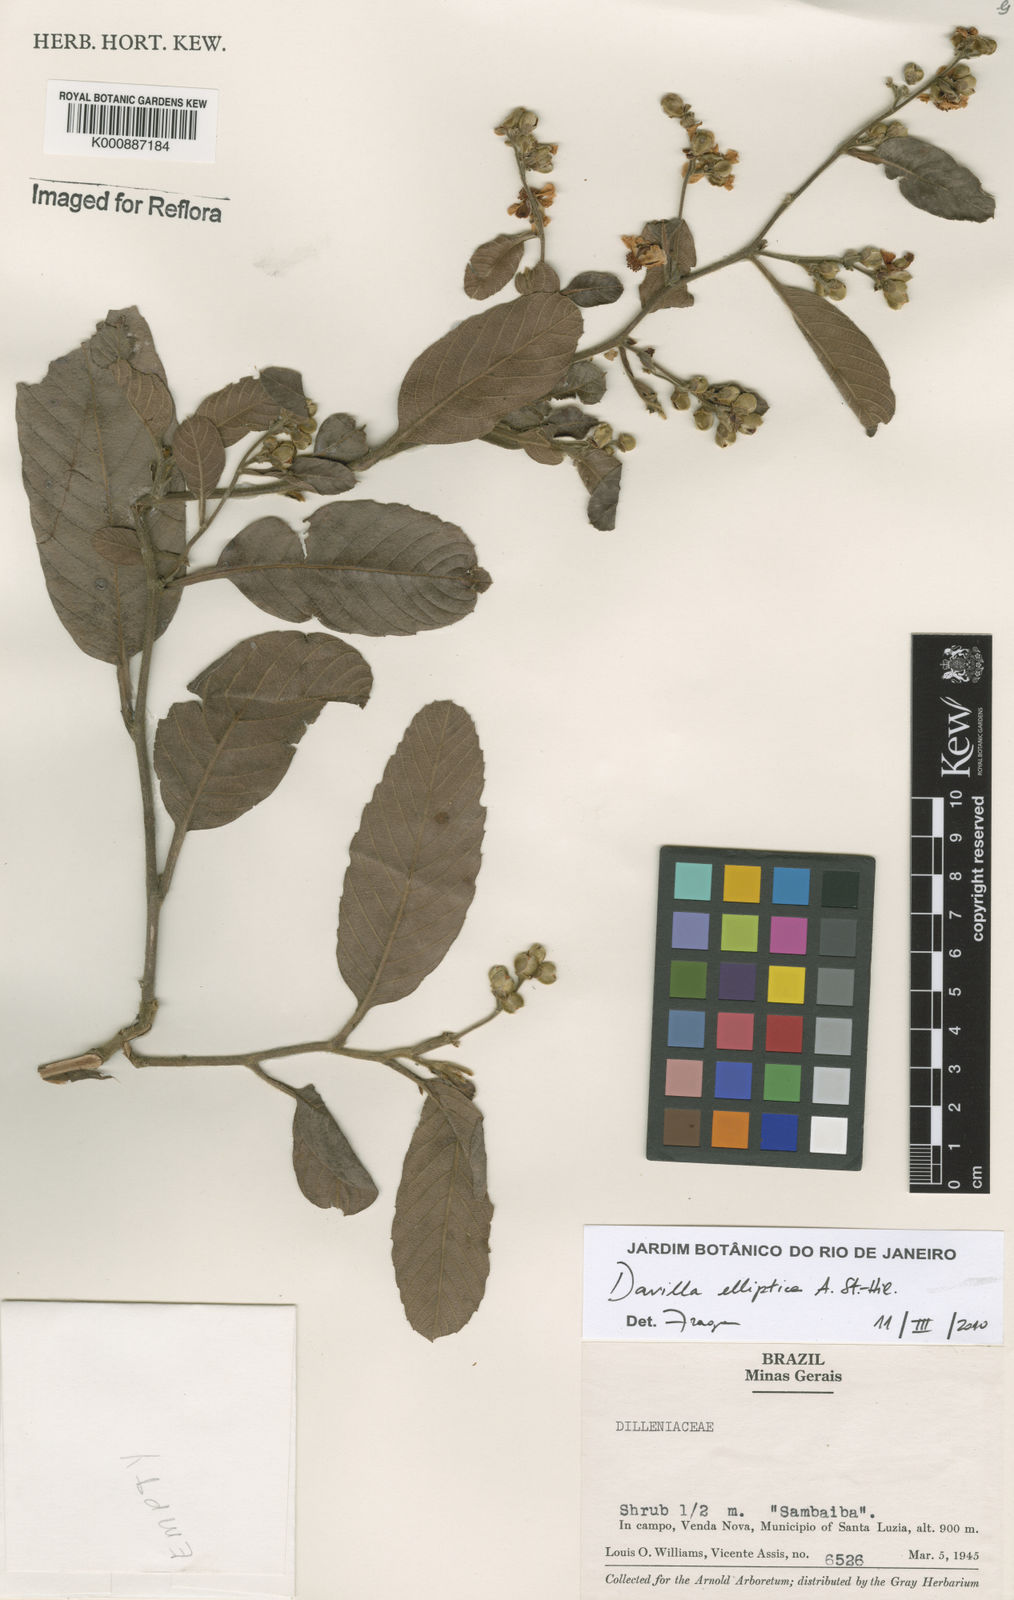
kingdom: Plantae
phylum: Tracheophyta
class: Magnoliopsida
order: Dilleniales
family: Dilleniaceae
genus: Davilla
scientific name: Davilla elliptica
